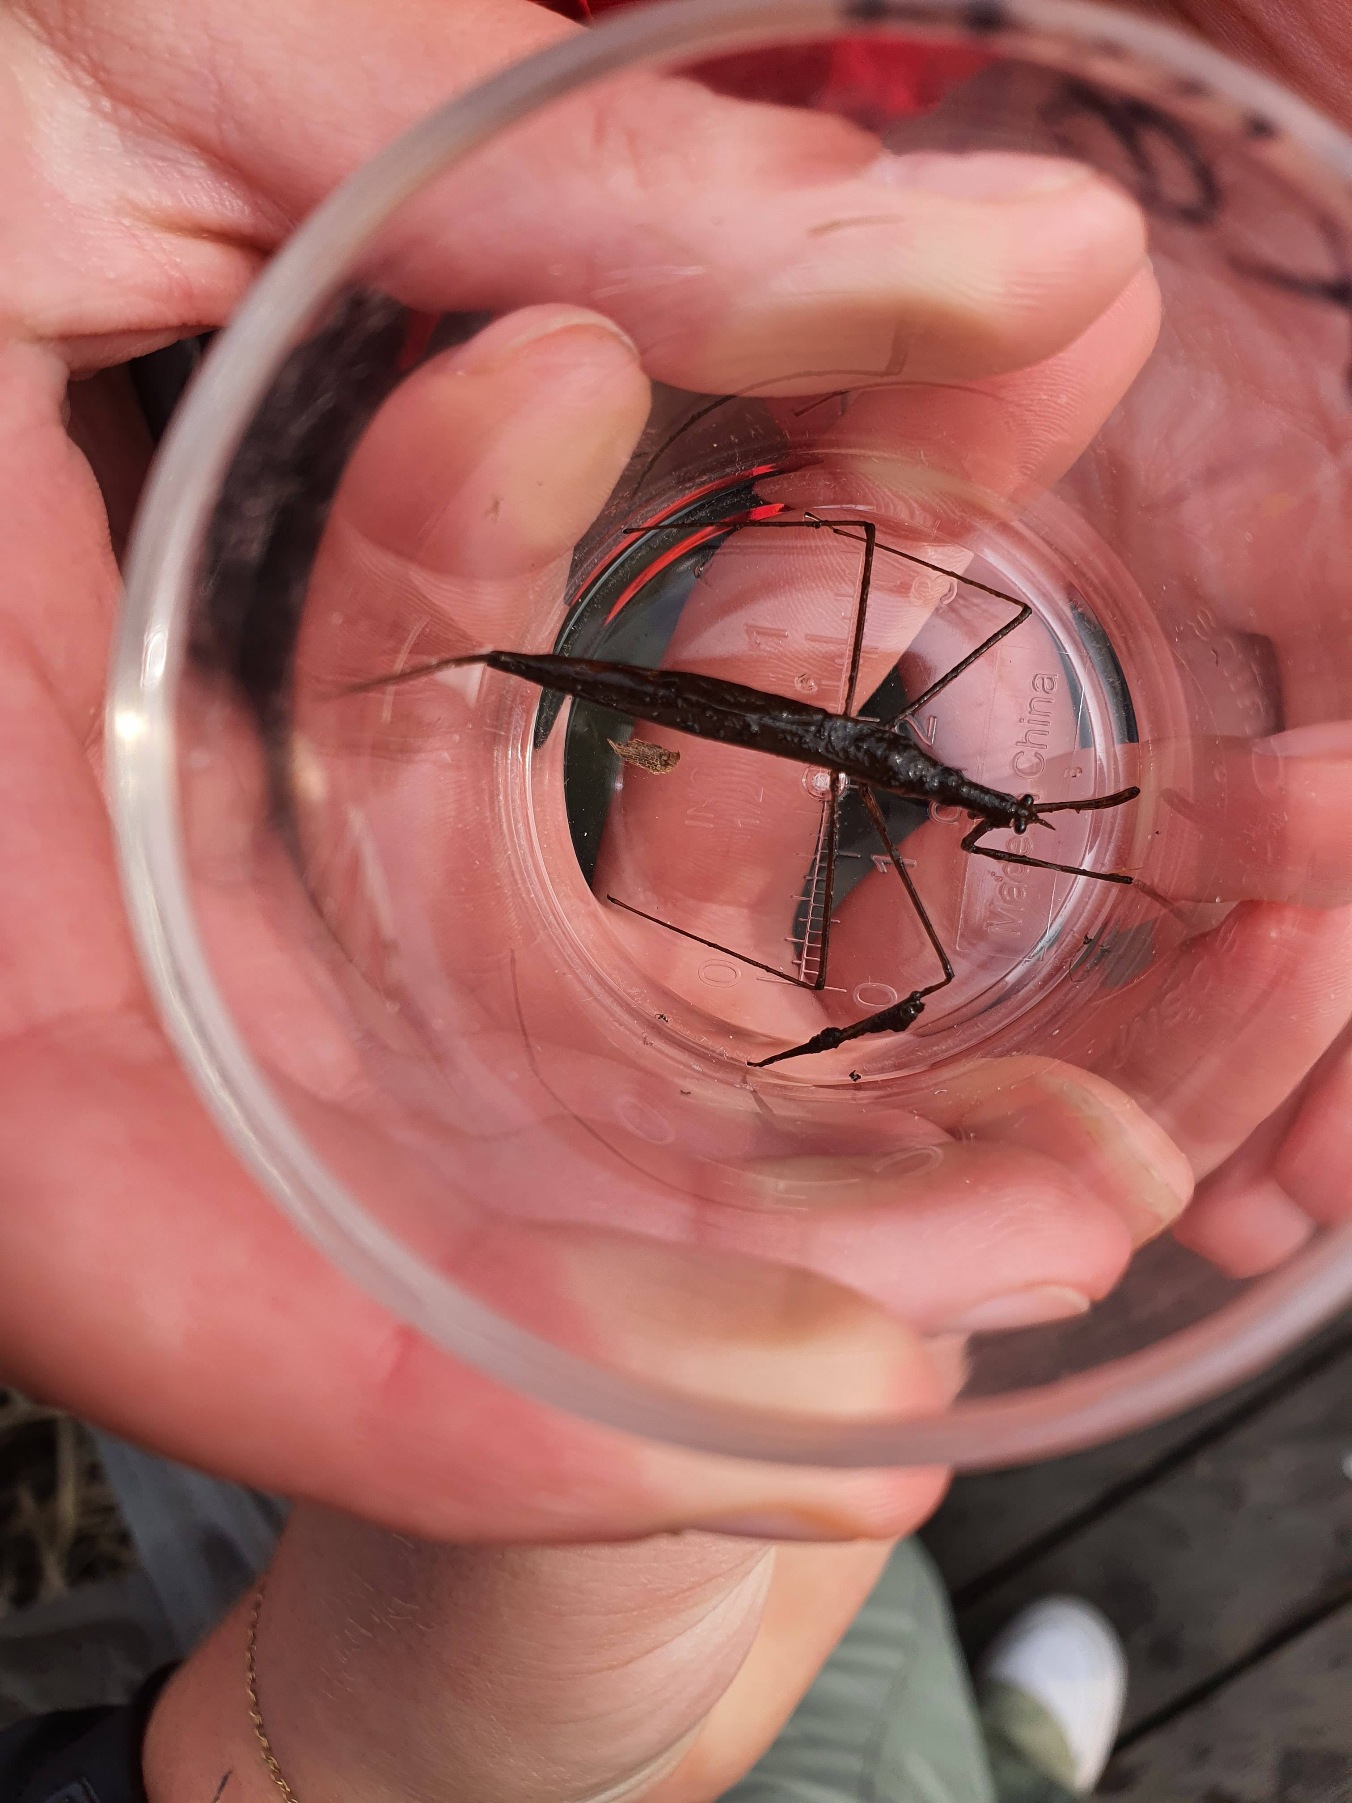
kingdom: Animalia
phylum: Arthropoda
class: Insecta
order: Hemiptera
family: Nepidae
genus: Ranatra
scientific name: Ranatra linearis
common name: Stavtæge
